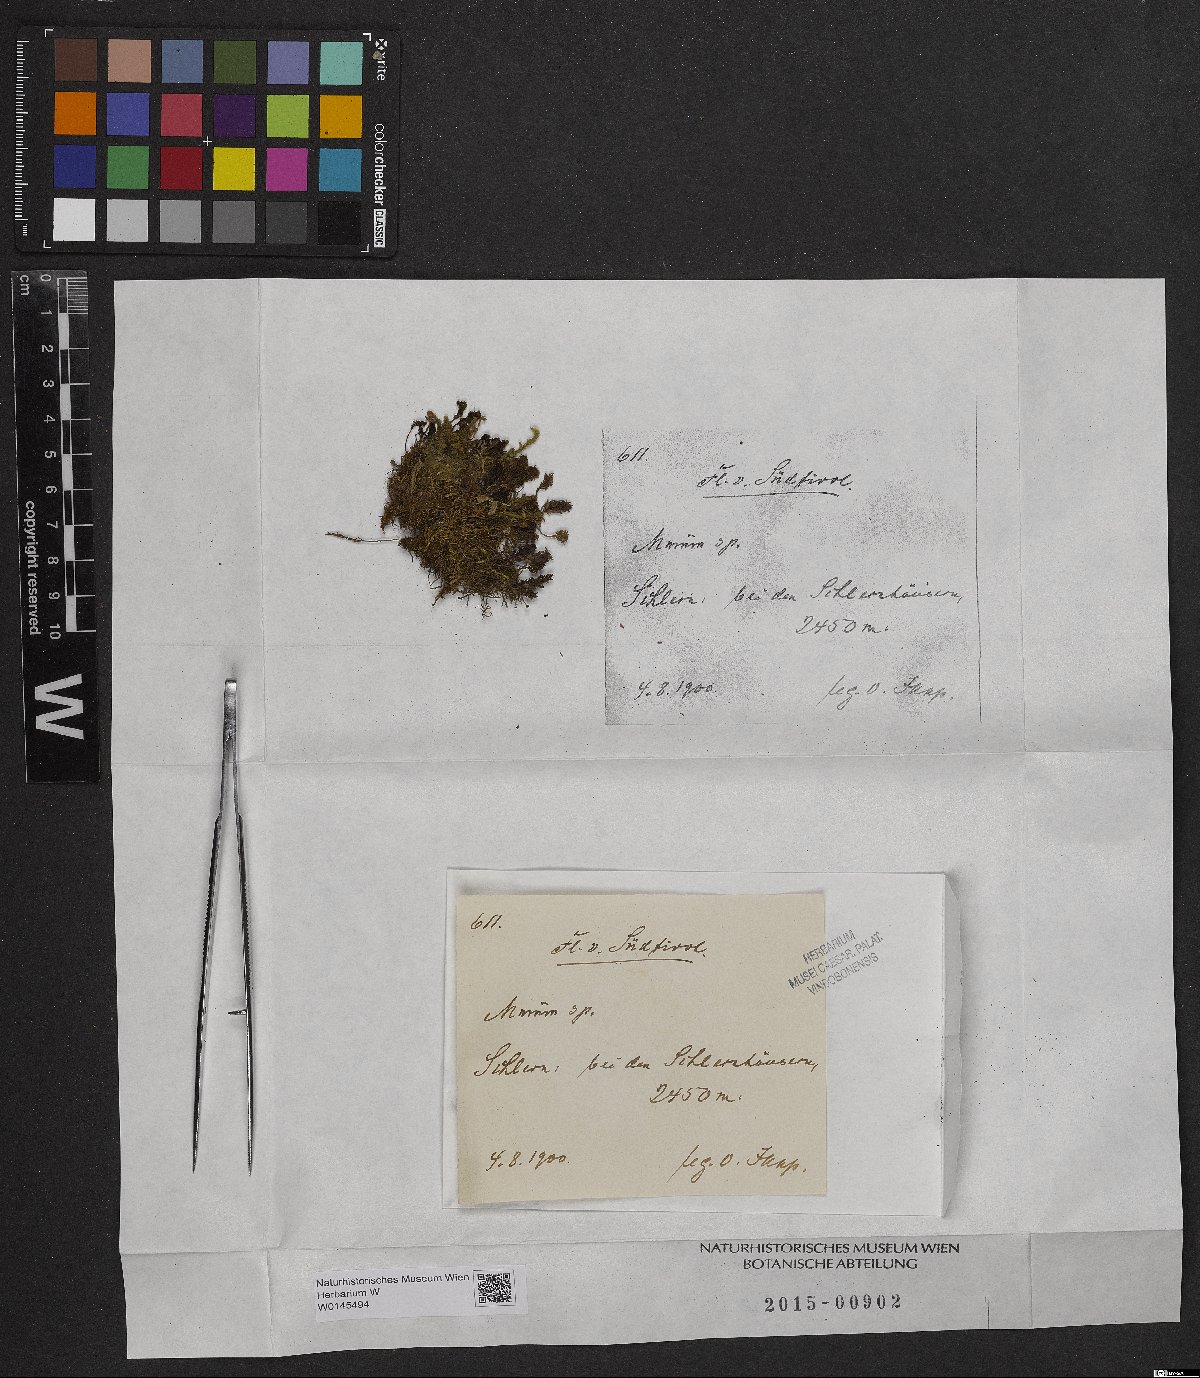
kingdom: Plantae
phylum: Bryophyta
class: Bryopsida
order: Bryales
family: Mniaceae
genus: Mnium
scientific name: Mnium
